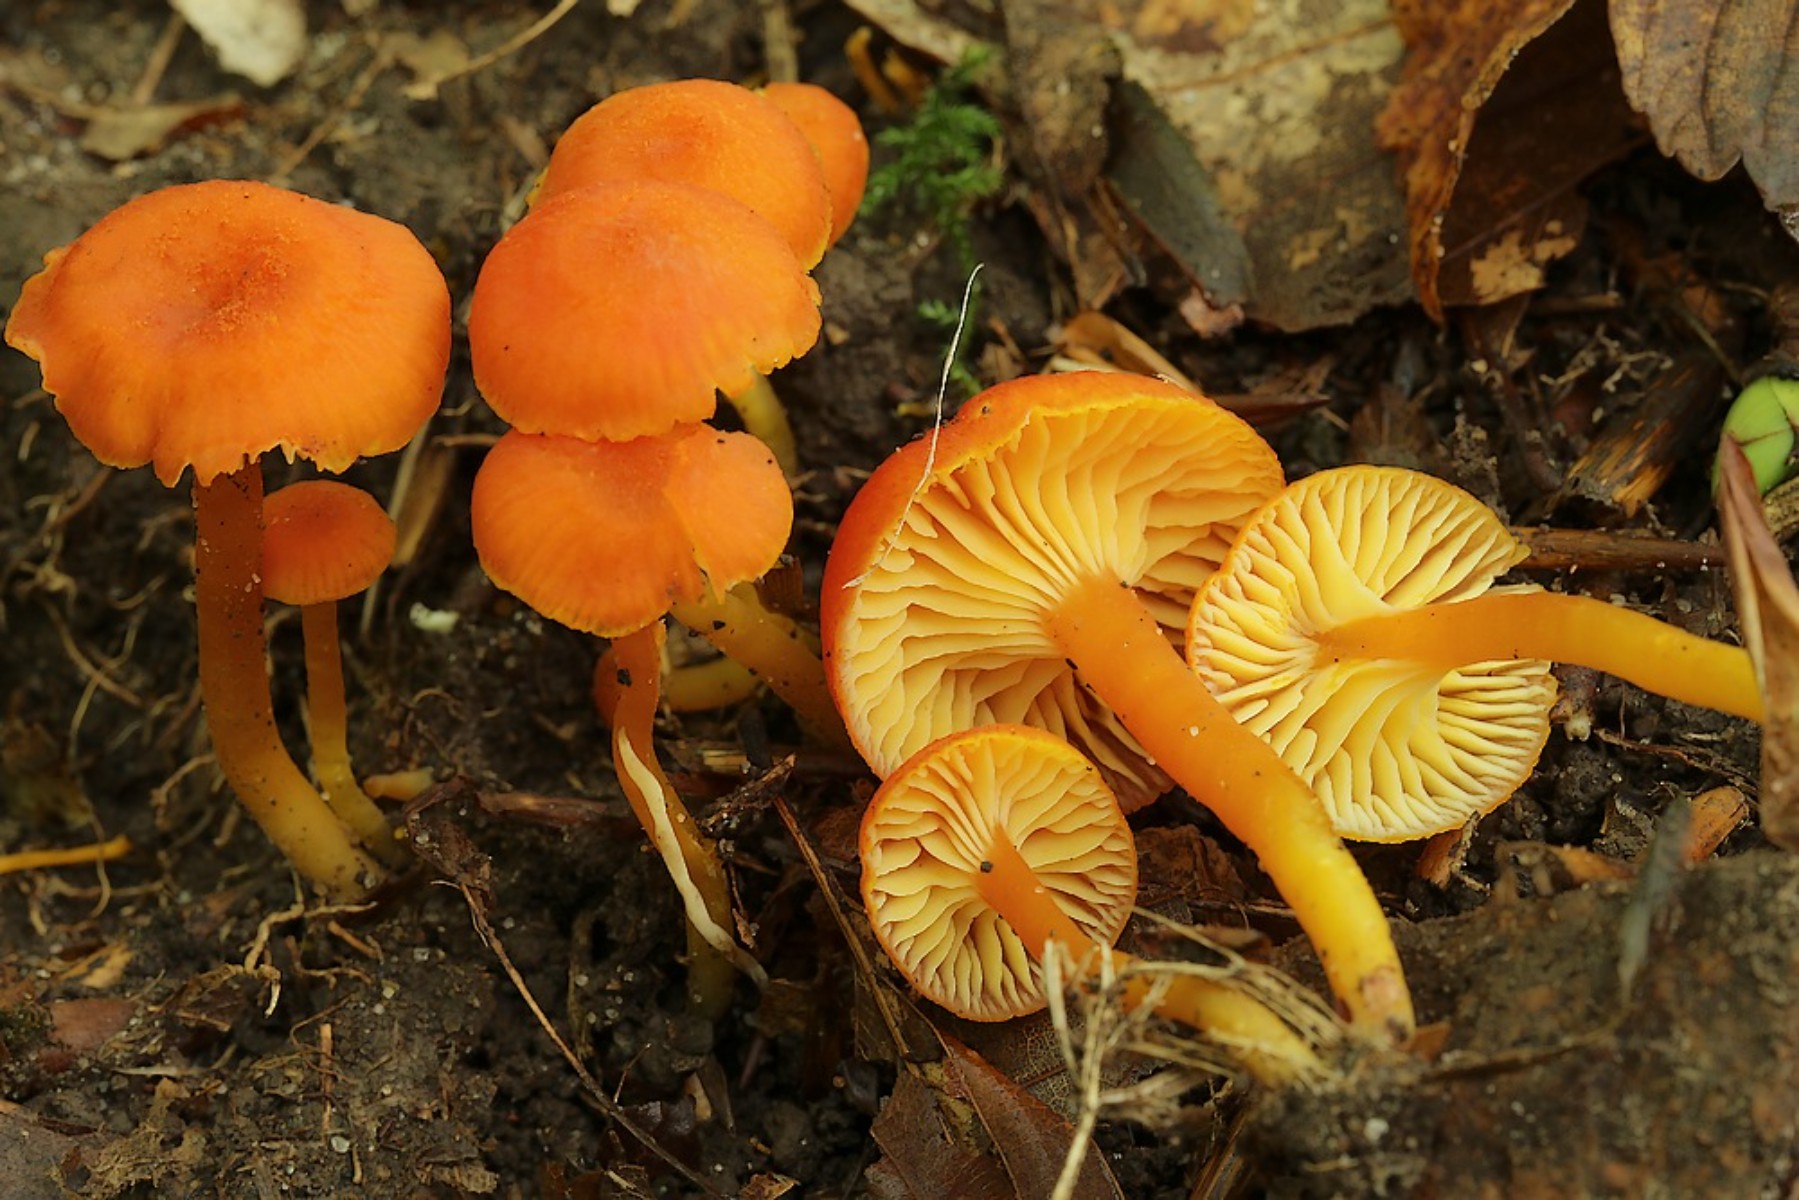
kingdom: Fungi
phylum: Basidiomycota
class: Agaricomycetes
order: Agaricales
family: Hygrophoraceae
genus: Hygrocybe
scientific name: Hygrocybe miniata
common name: mønje-vokshat
